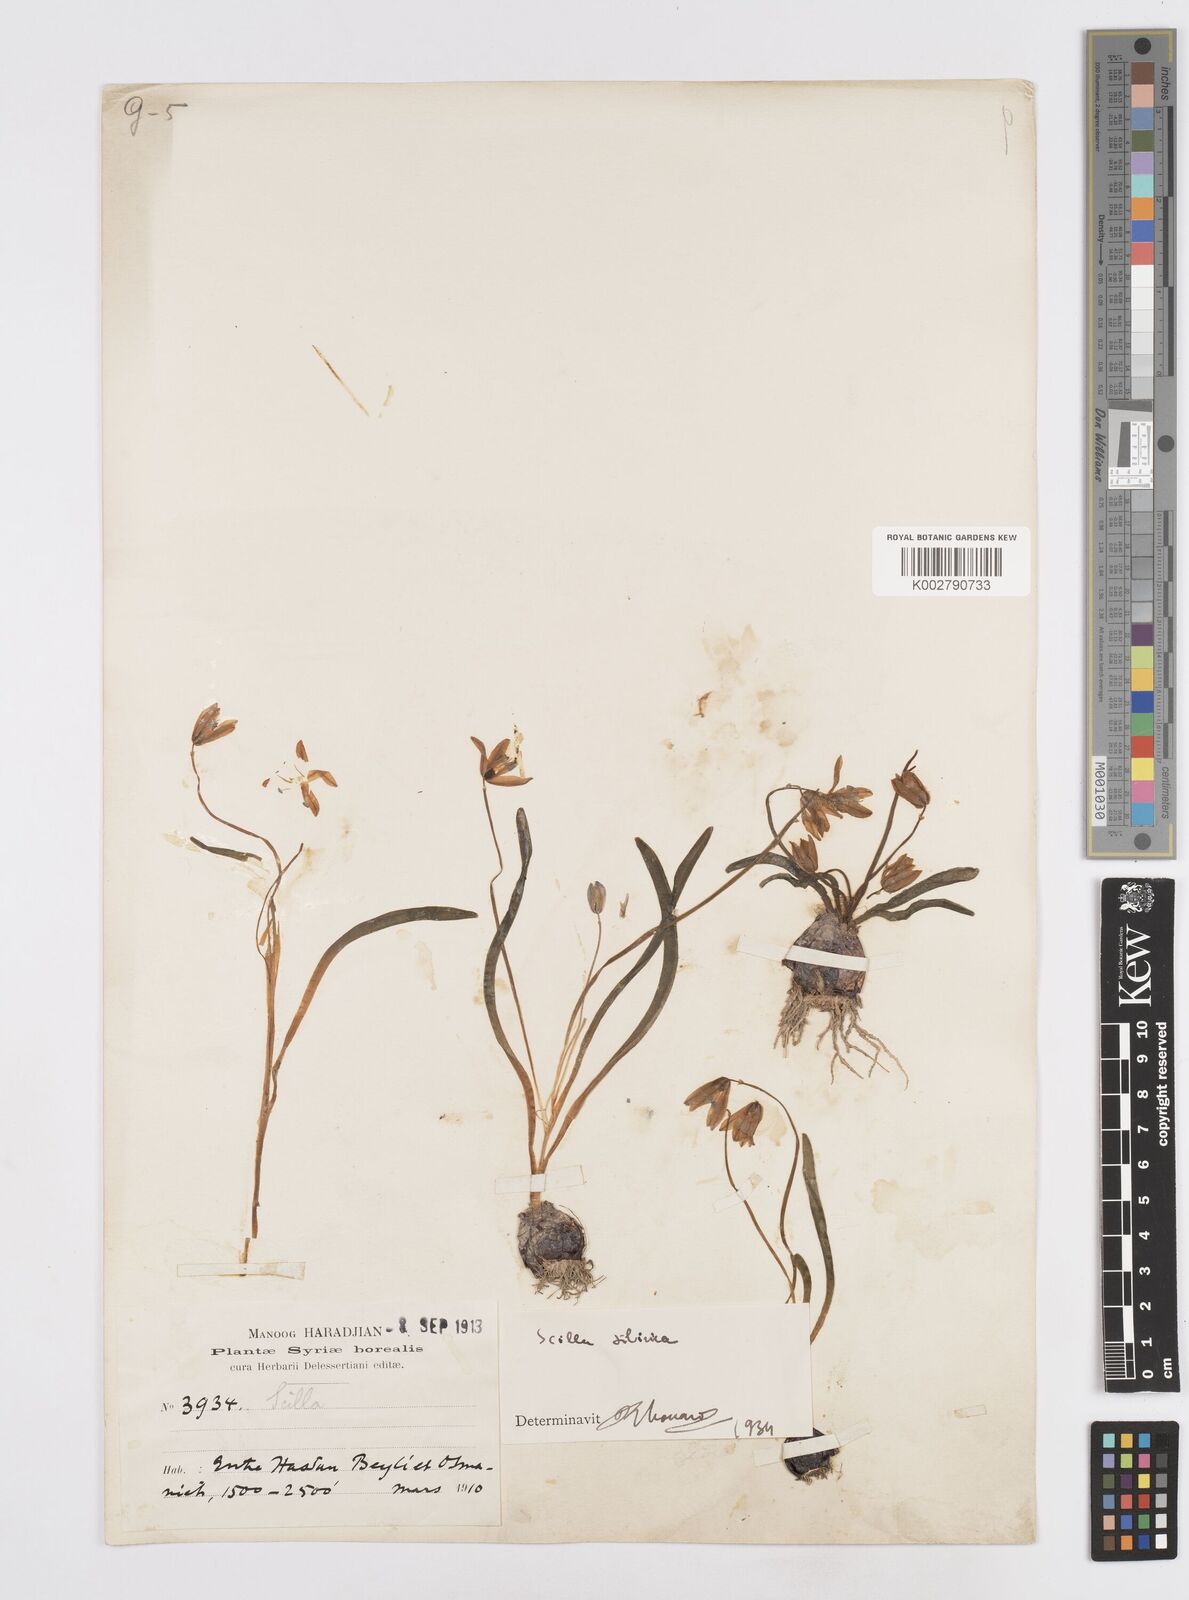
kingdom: Plantae
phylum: Tracheophyta
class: Liliopsida
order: Asparagales
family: Asparagaceae
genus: Scilla
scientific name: Scilla siberica
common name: Siberian squill
